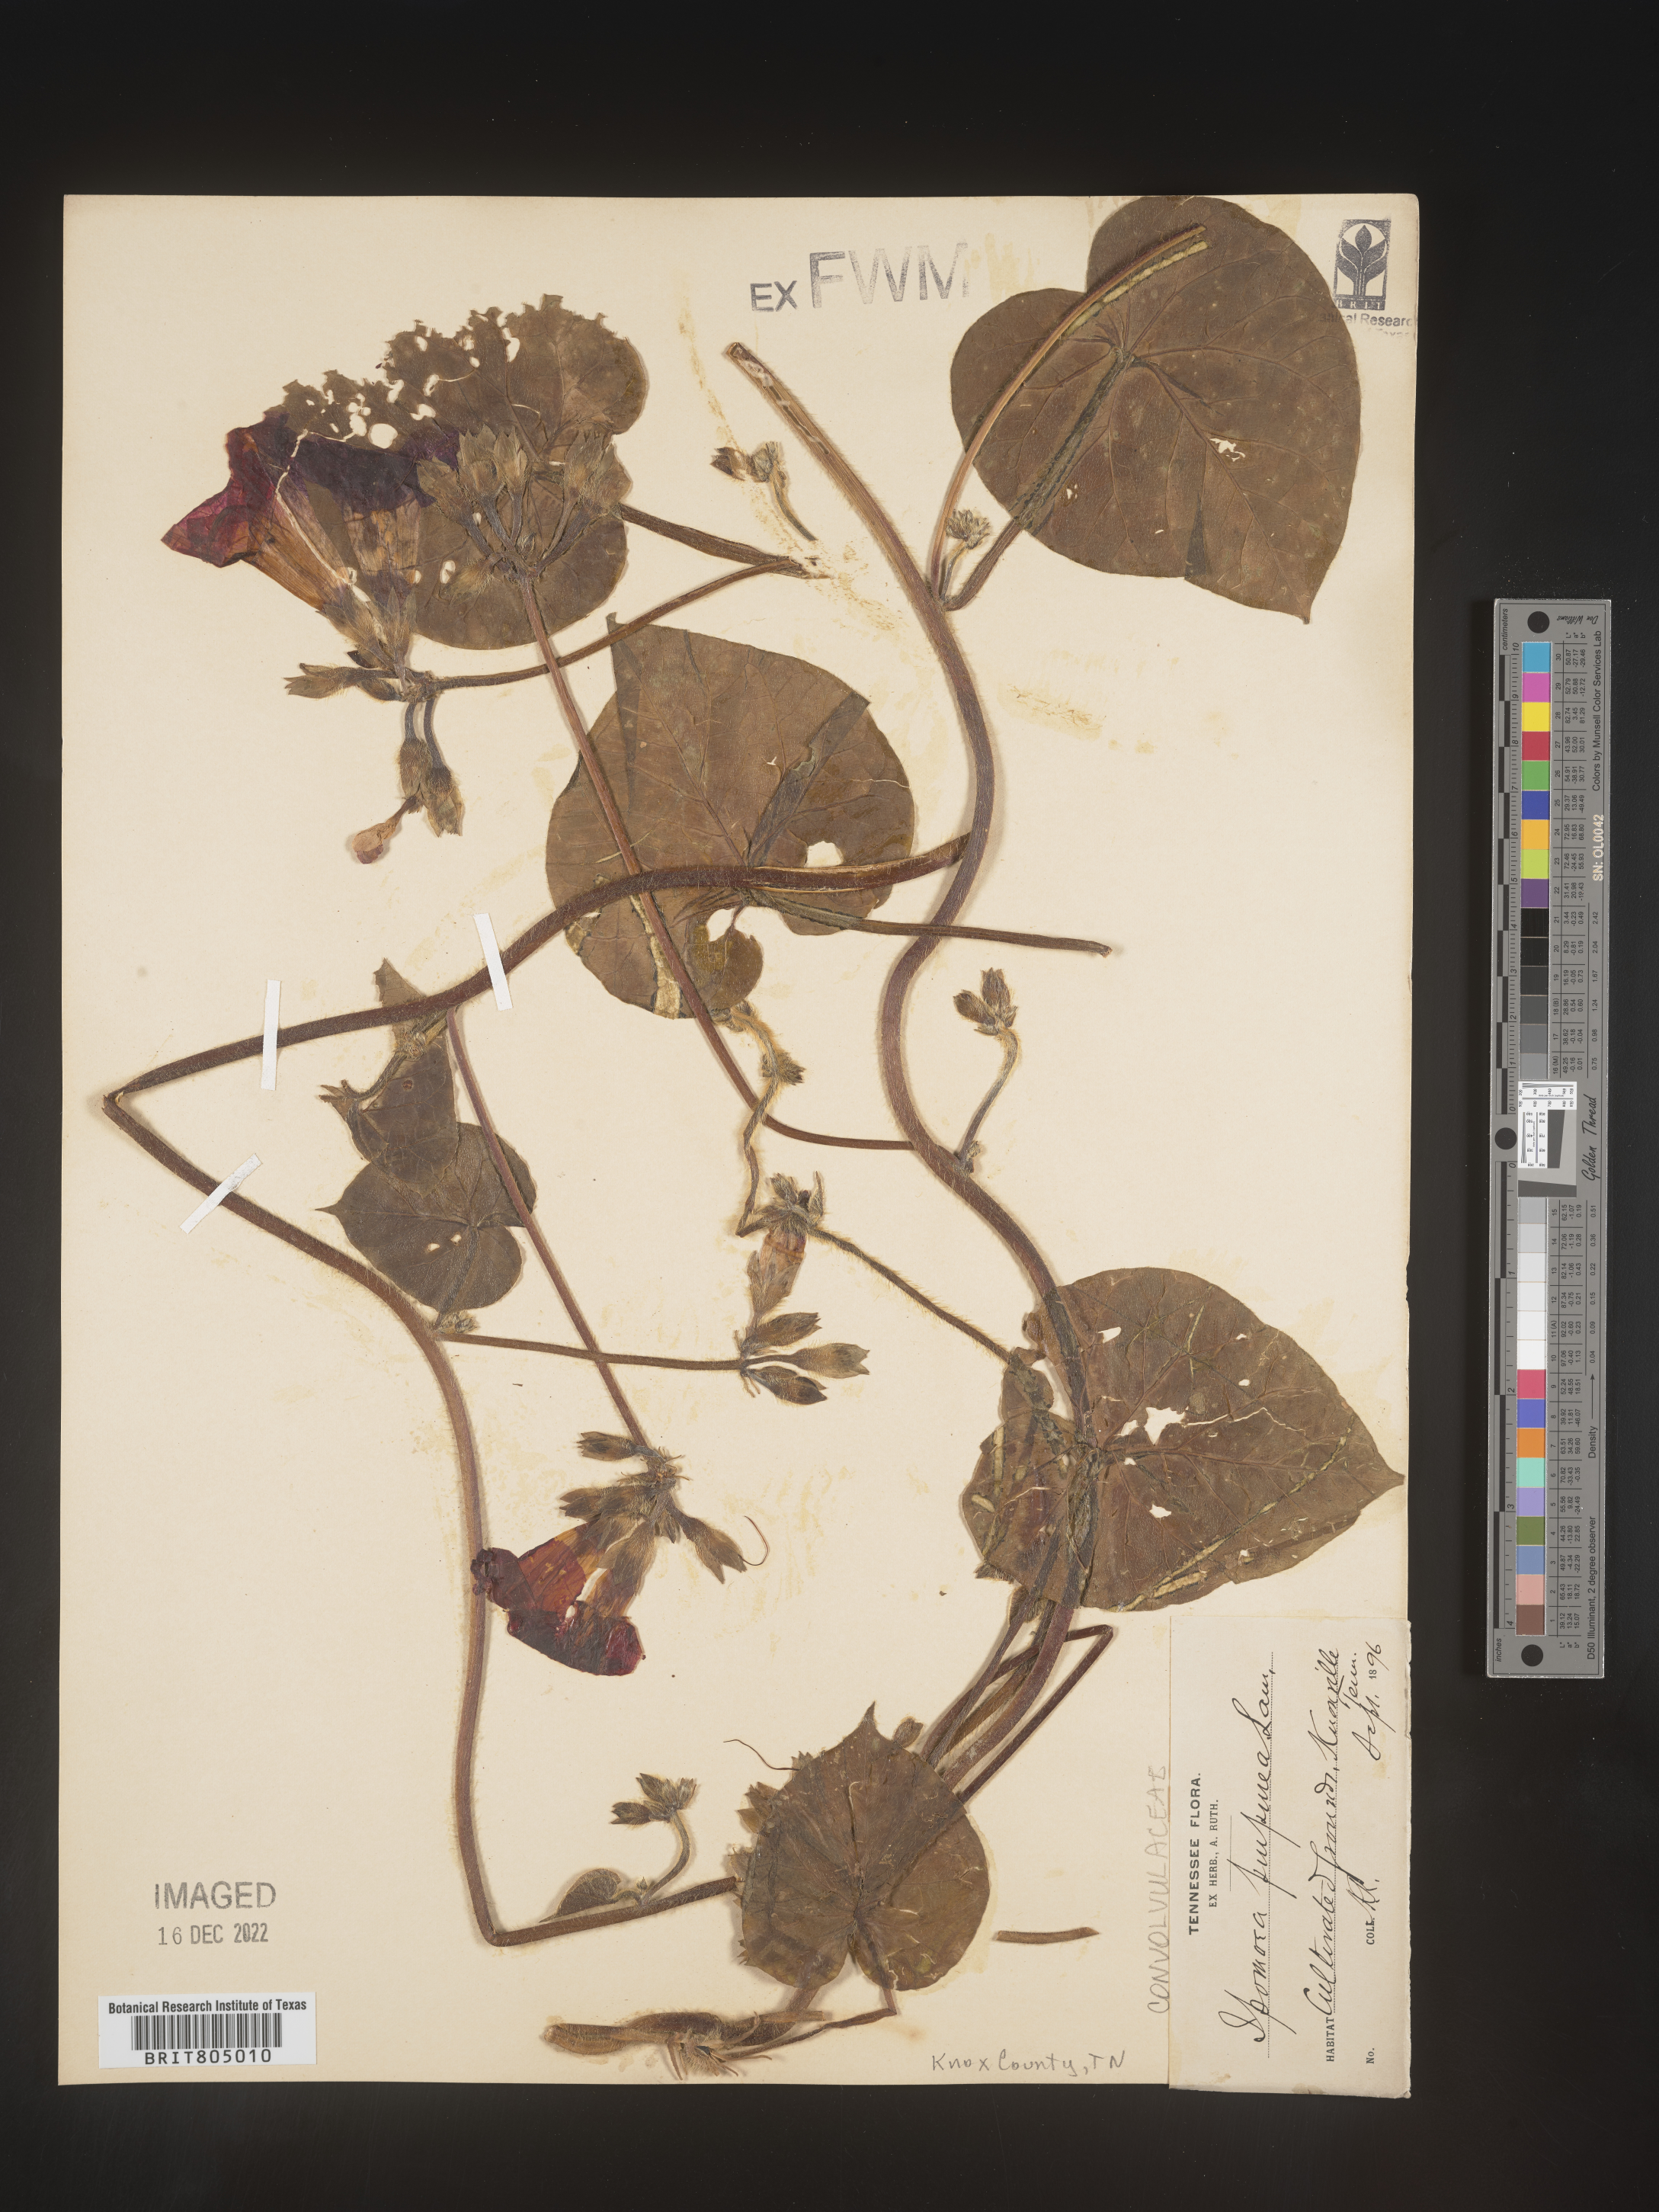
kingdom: Plantae
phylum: Tracheophyta
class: Magnoliopsida
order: Solanales
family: Convolvulaceae
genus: Ipomoea
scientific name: Ipomoea purpurea
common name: Common morning-glory
